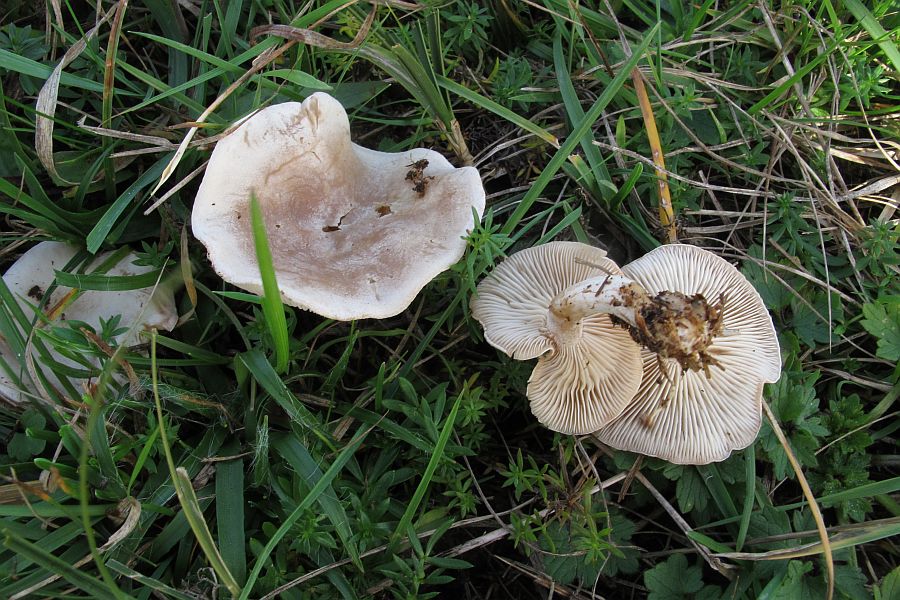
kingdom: Fungi
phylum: Basidiomycota
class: Agaricomycetes
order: Agaricales
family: Tricholomataceae
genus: Clitocybe
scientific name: Clitocybe rivulosa
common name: eng-tragthat
